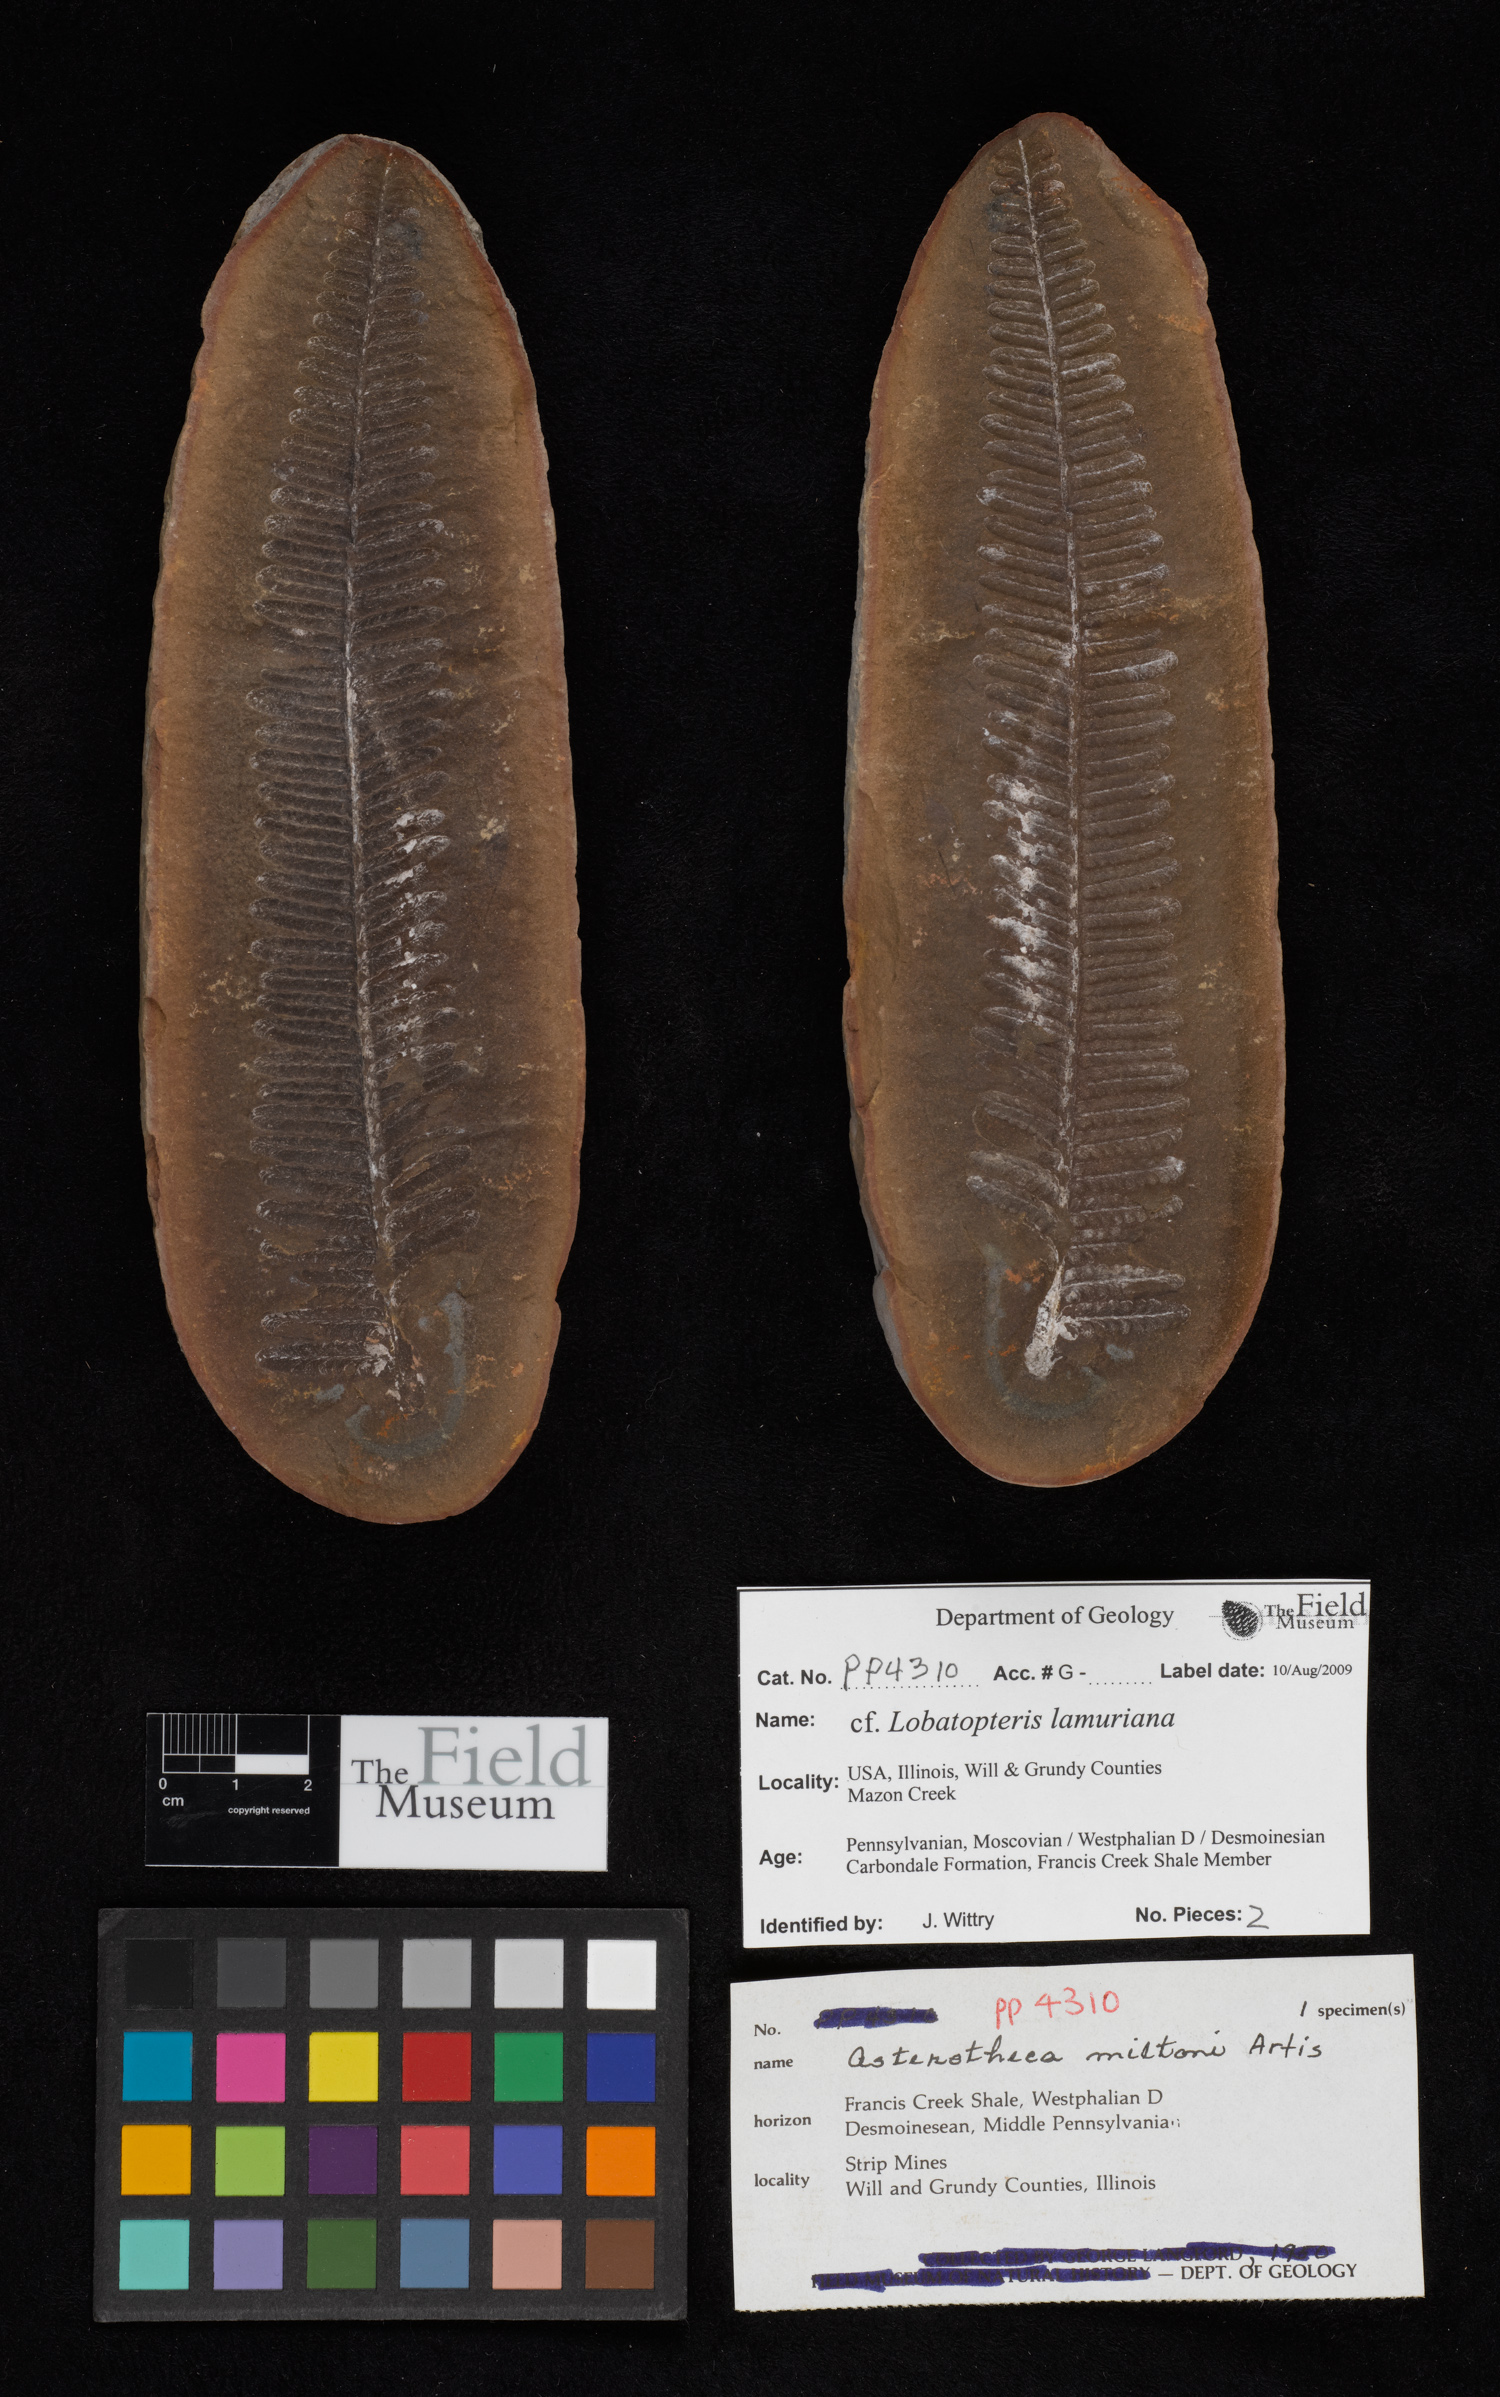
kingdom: Plantae
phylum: Tracheophyta
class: Polypodiopsida
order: Marattiales
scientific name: Marattiales
